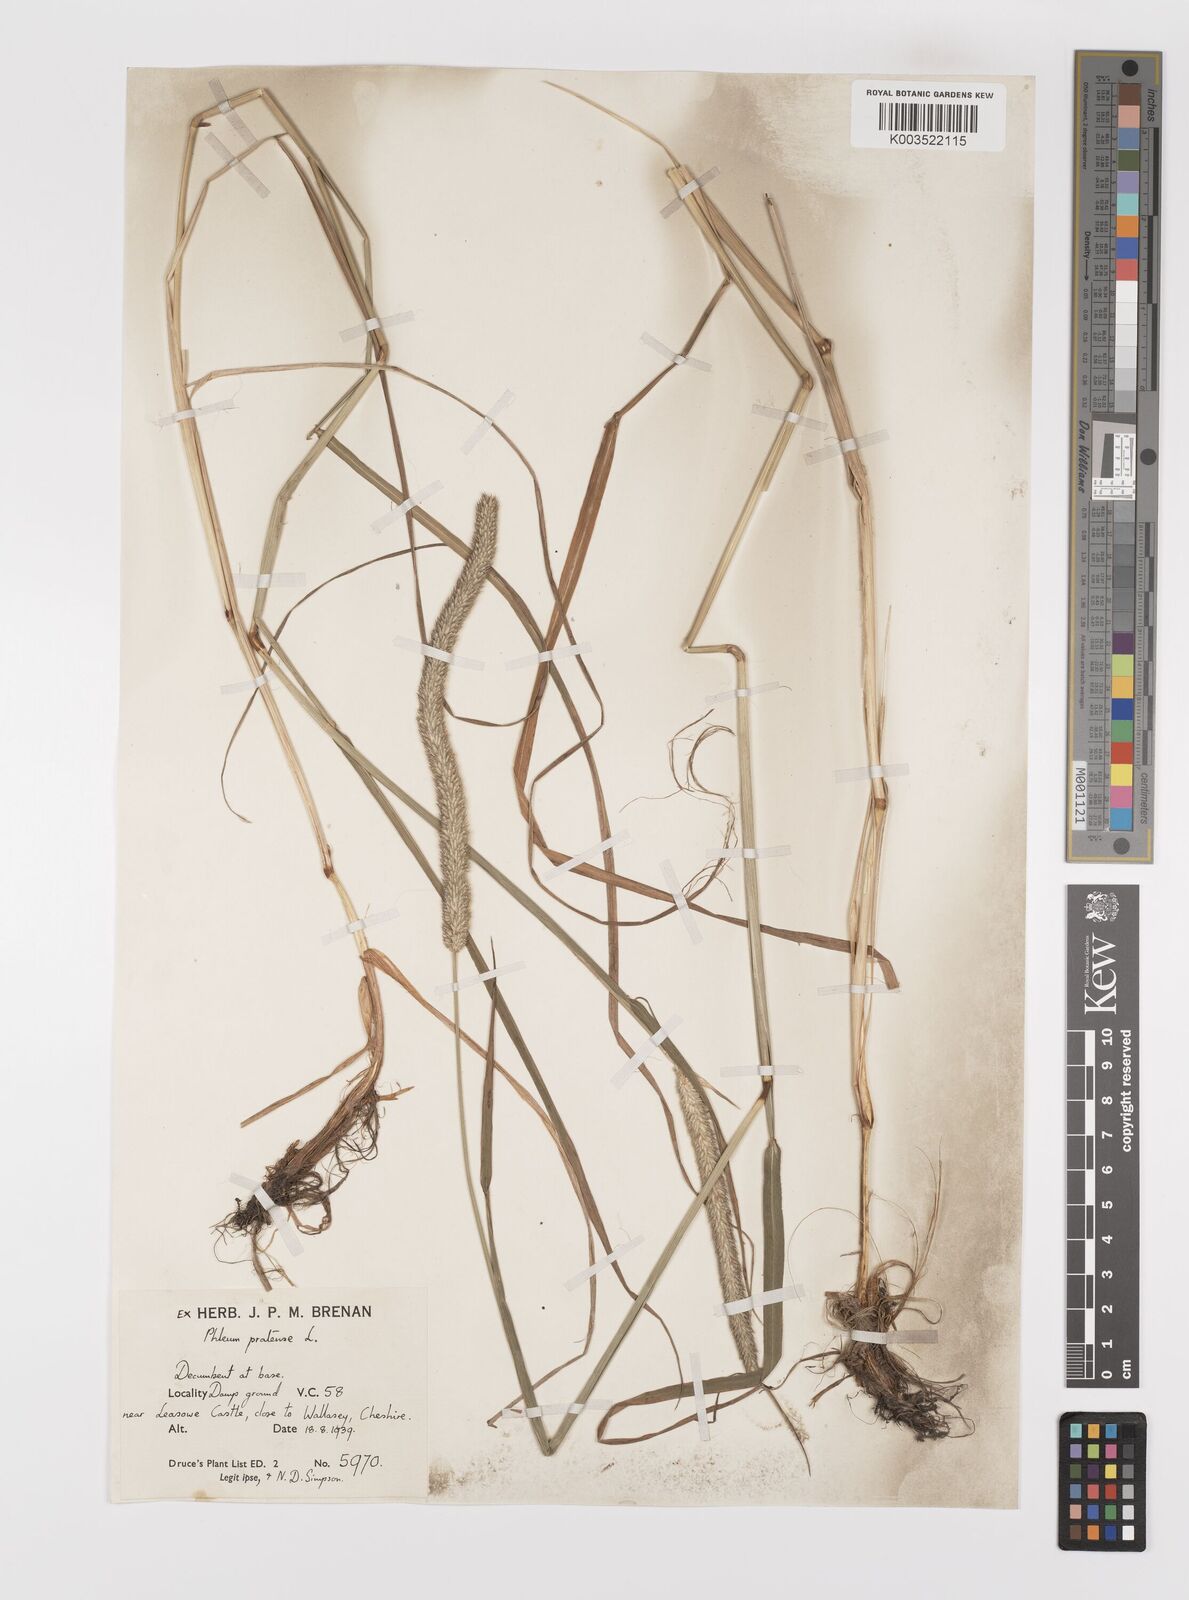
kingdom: Plantae
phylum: Tracheophyta
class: Liliopsida
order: Poales
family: Poaceae
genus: Phleum
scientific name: Phleum pratense
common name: Timothy grass
